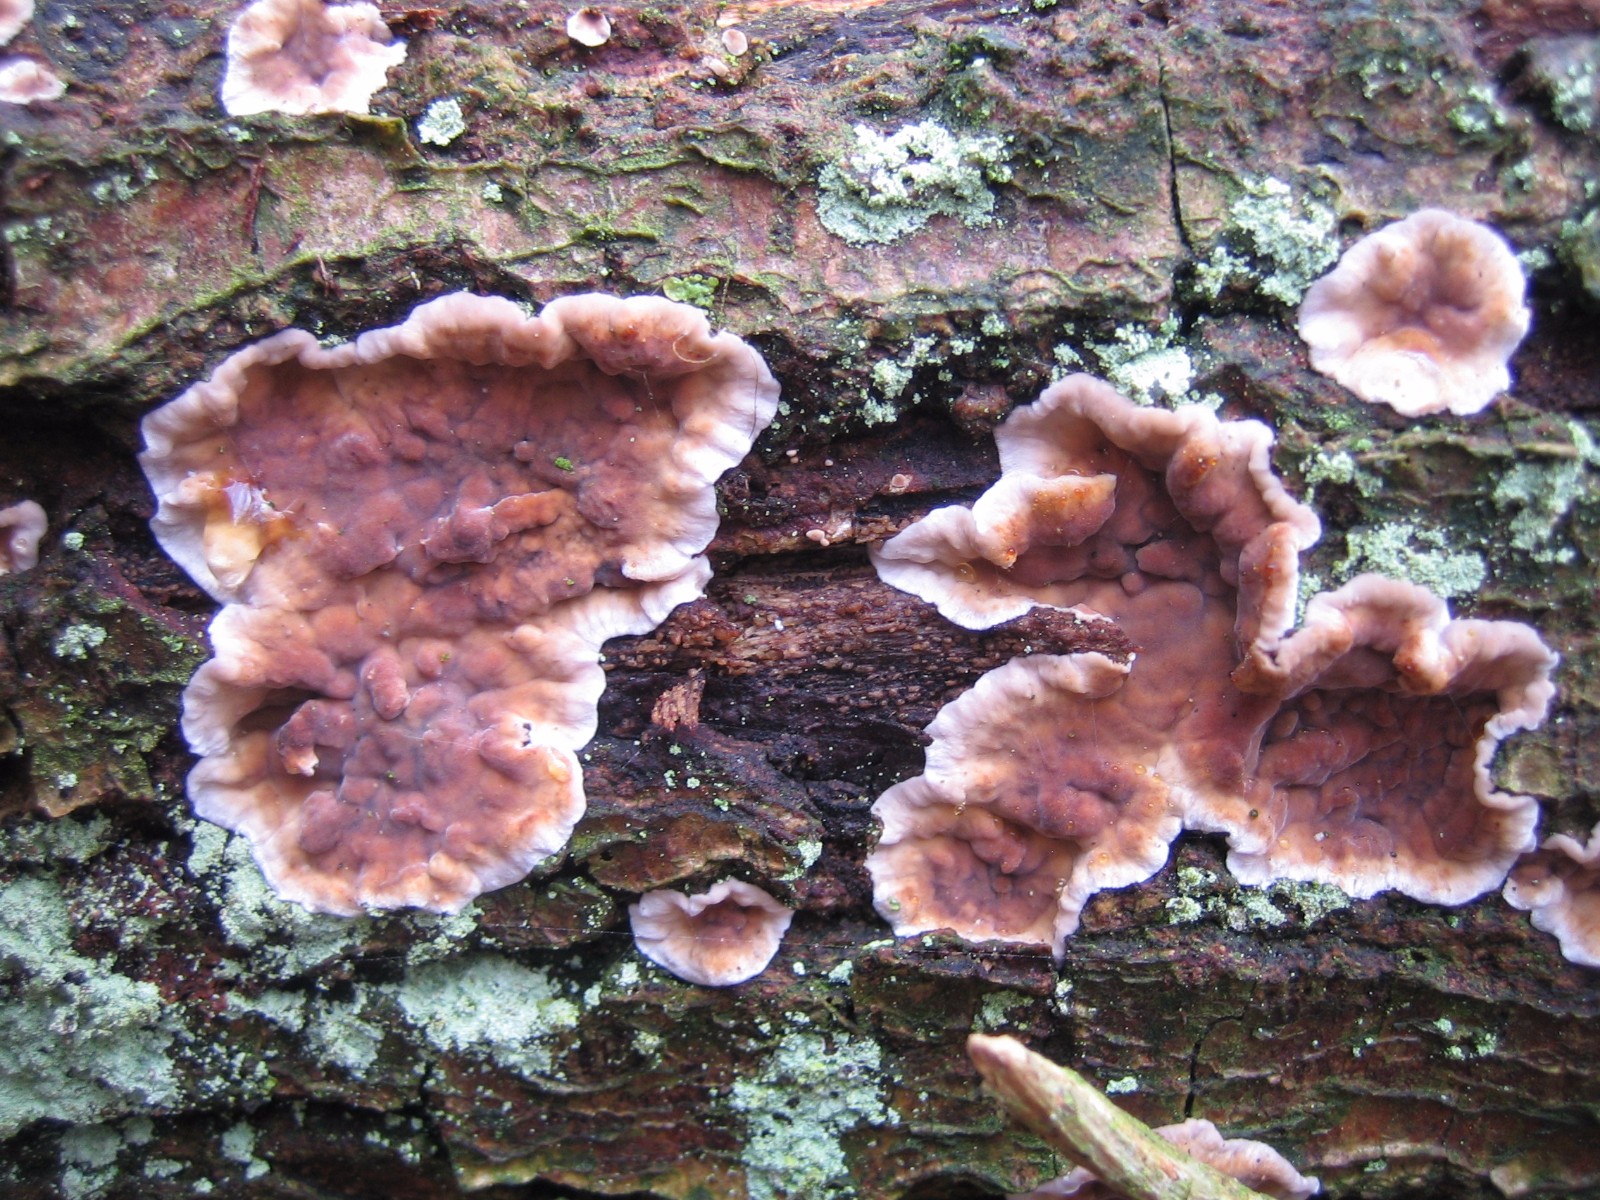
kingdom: Fungi
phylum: Basidiomycota
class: Agaricomycetes
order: Agaricales
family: Cyphellaceae
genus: Chondrostereum
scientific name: Chondrostereum purpureum
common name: purpurlædersvamp
